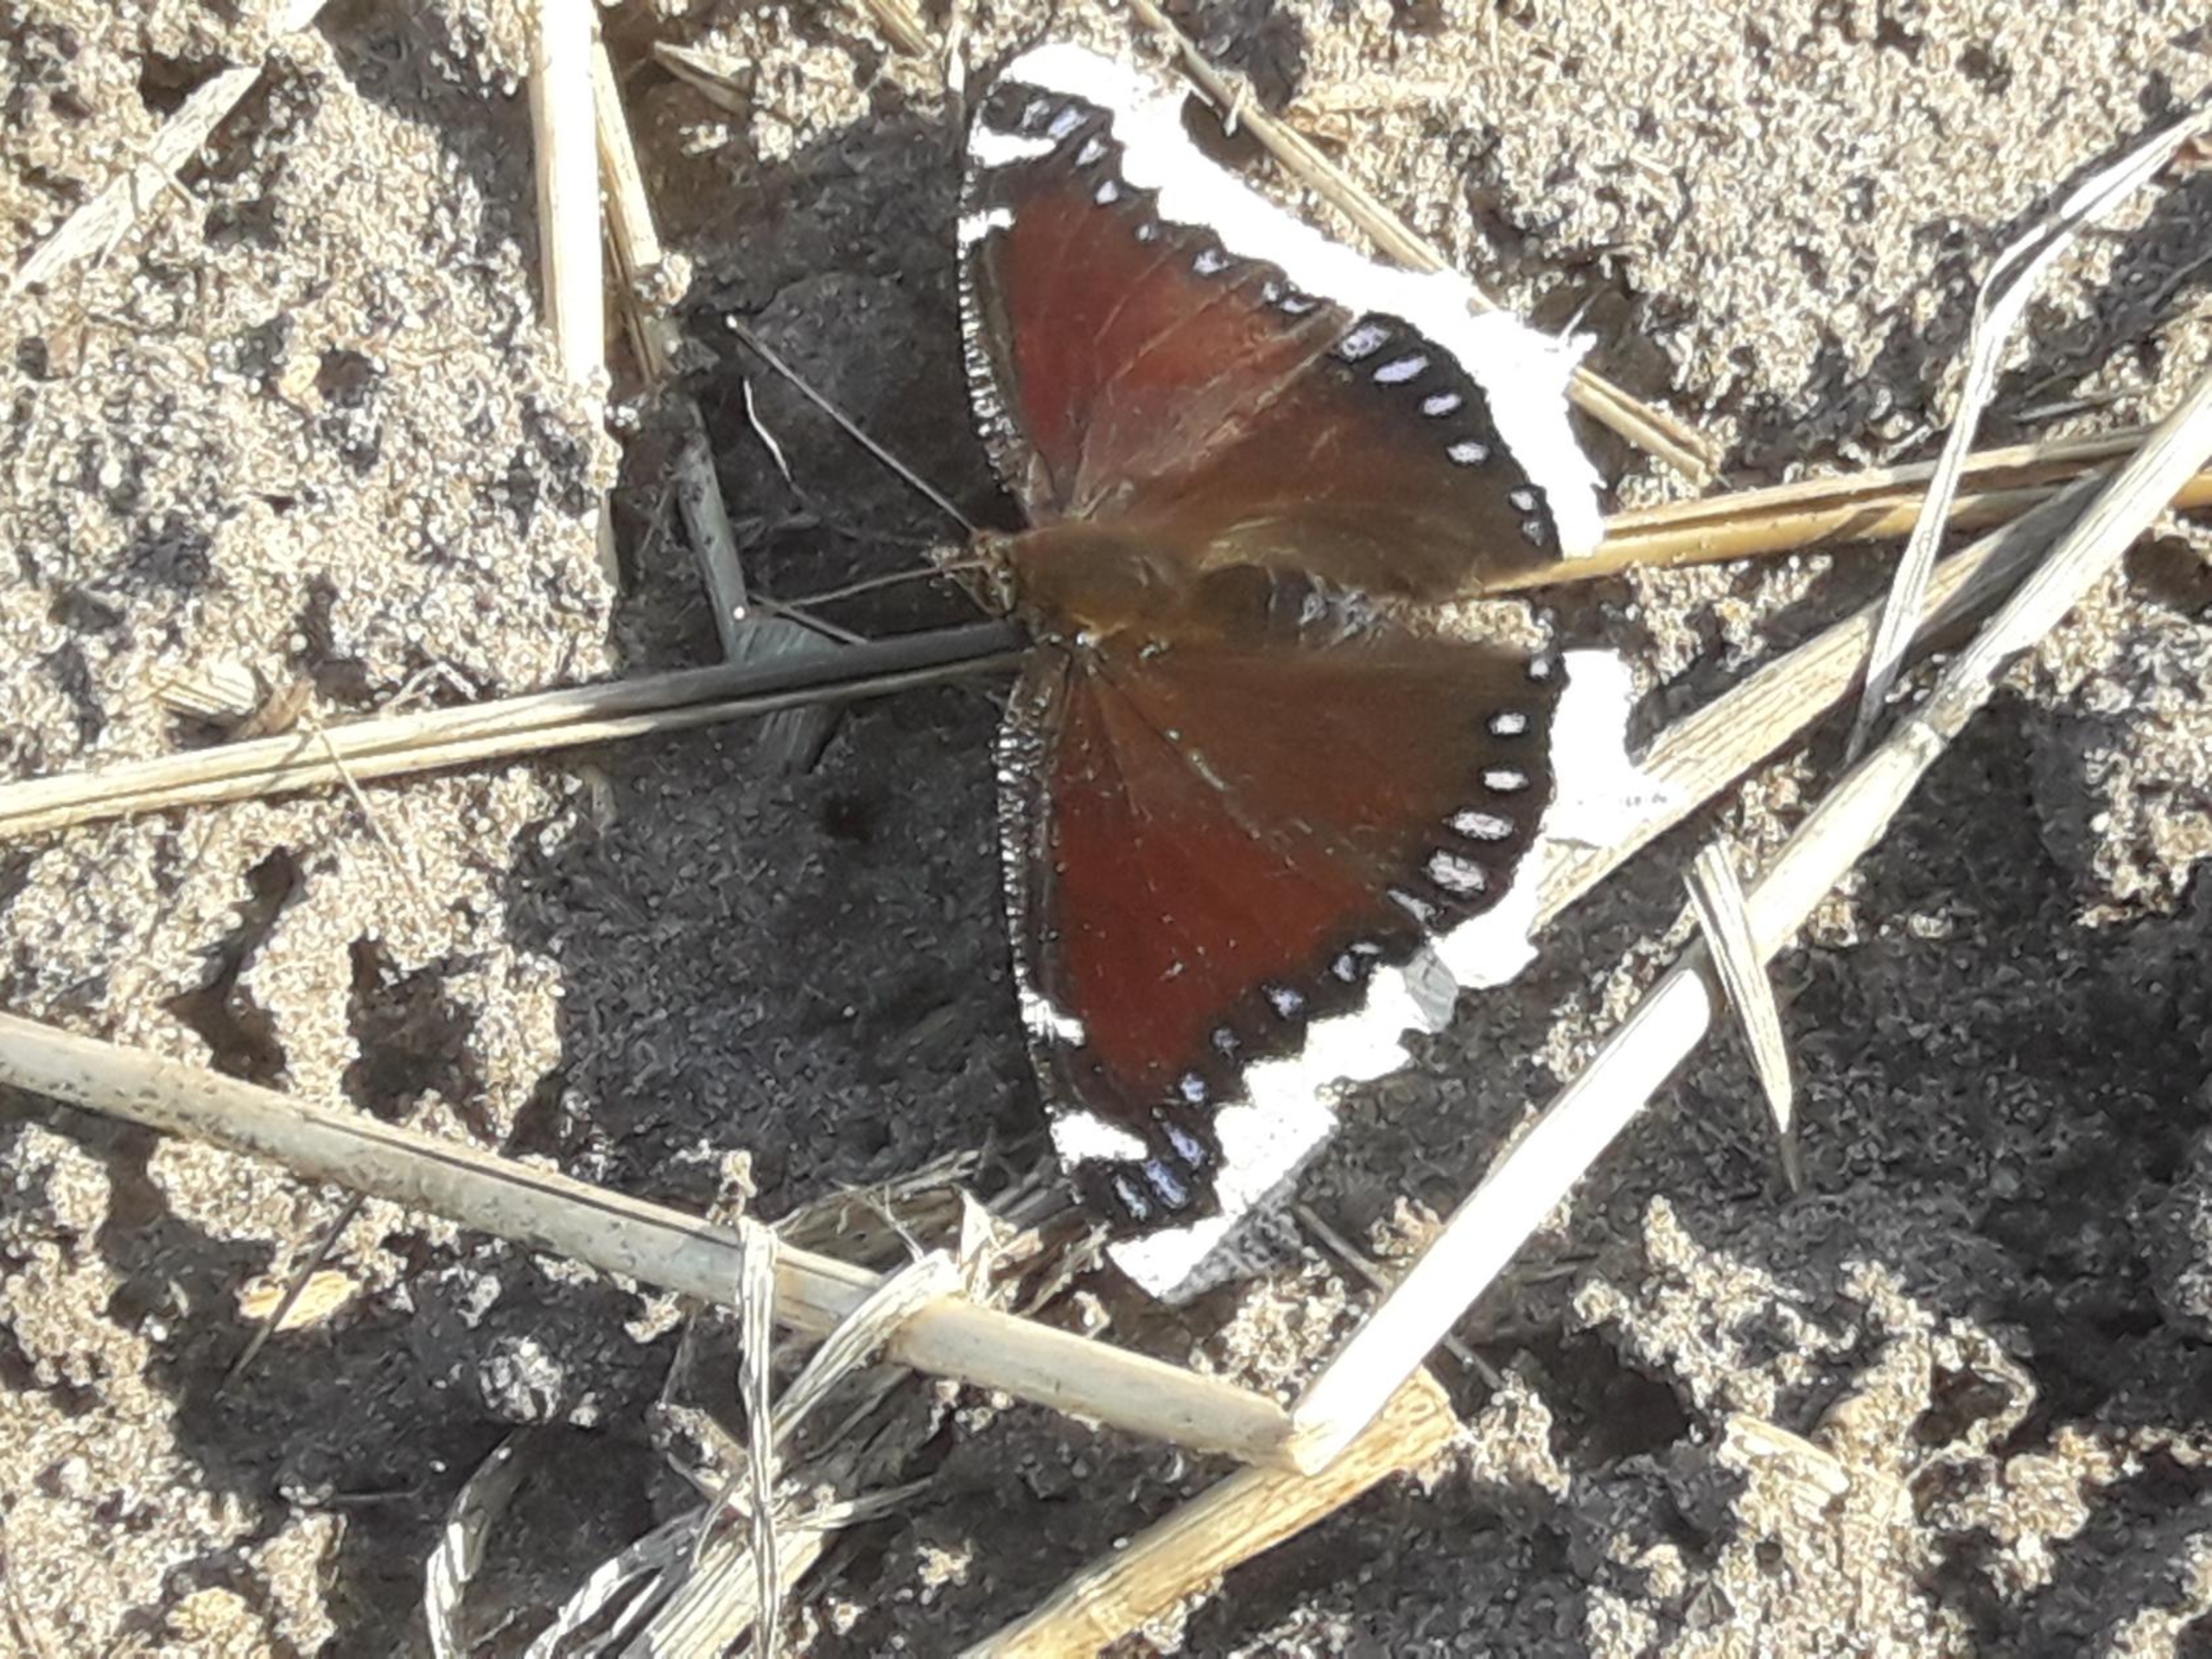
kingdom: Animalia
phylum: Arthropoda
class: Insecta
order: Lepidoptera
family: Nymphalidae
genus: Nymphalis
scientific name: Nymphalis antiopa
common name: Sørgekåbe
